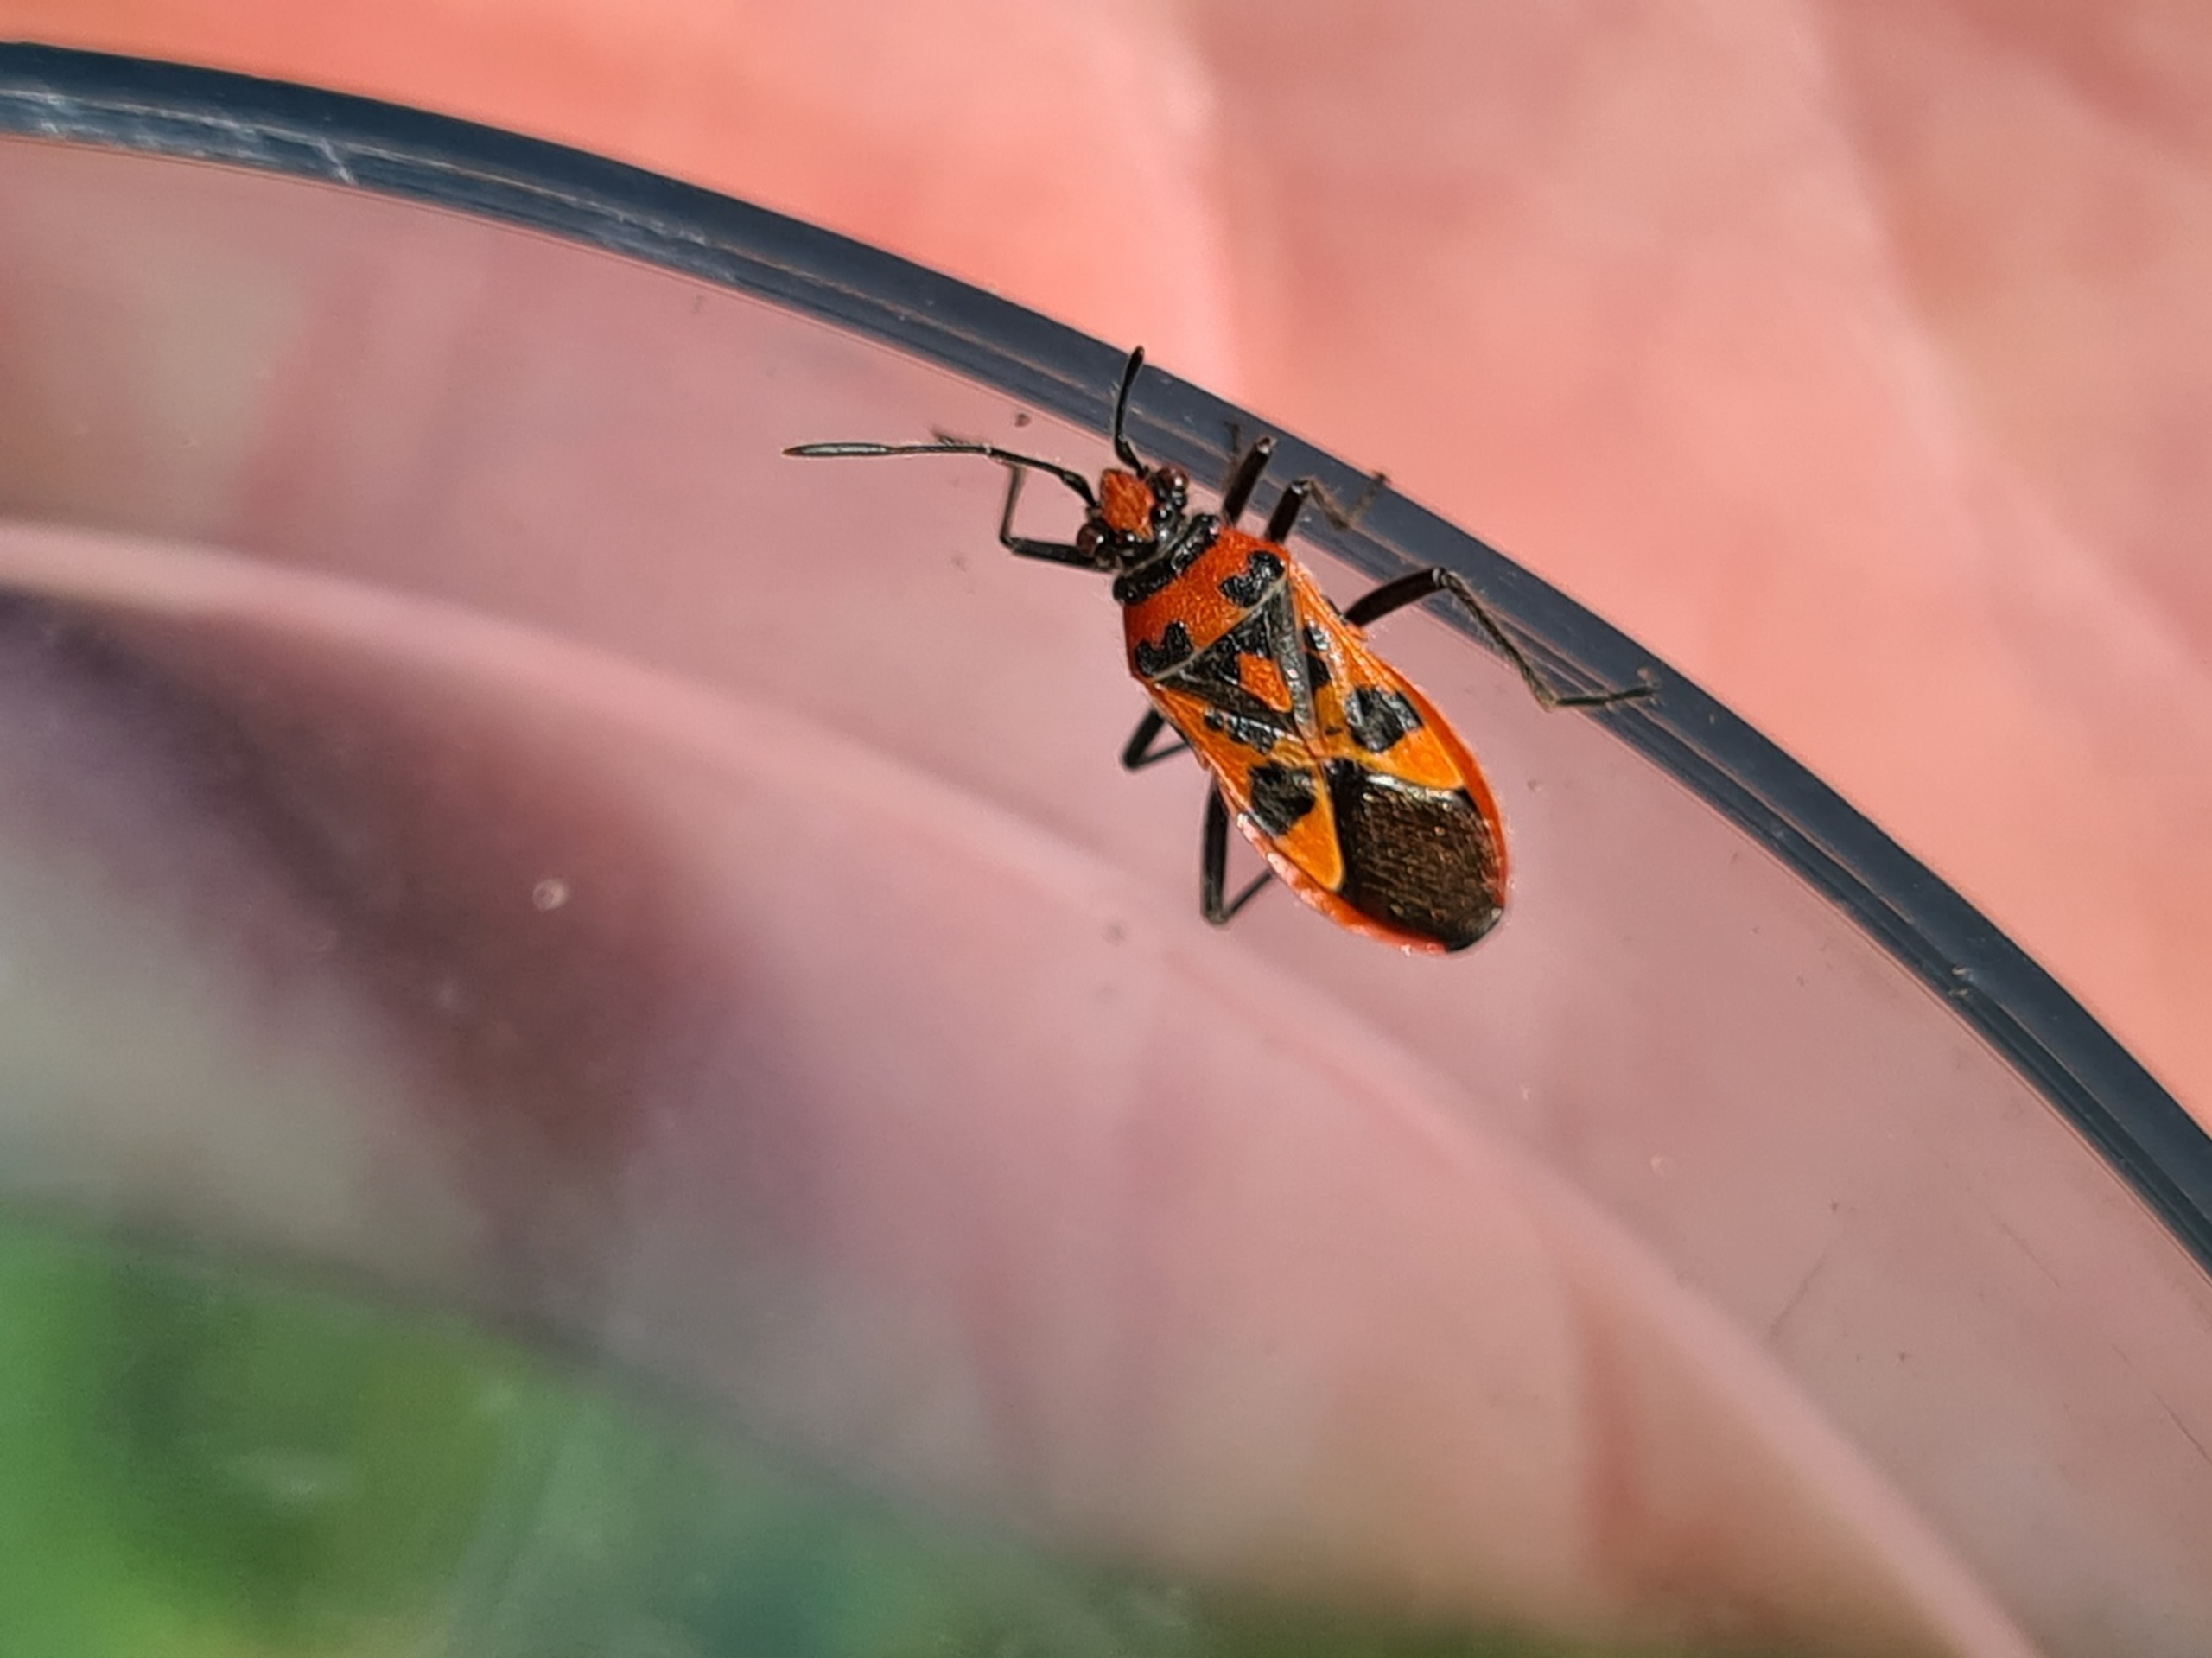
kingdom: Animalia
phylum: Arthropoda
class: Insecta
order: Hemiptera
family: Rhopalidae
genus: Corizus
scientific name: Corizus hyoscyami
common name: Rød kanttæge
